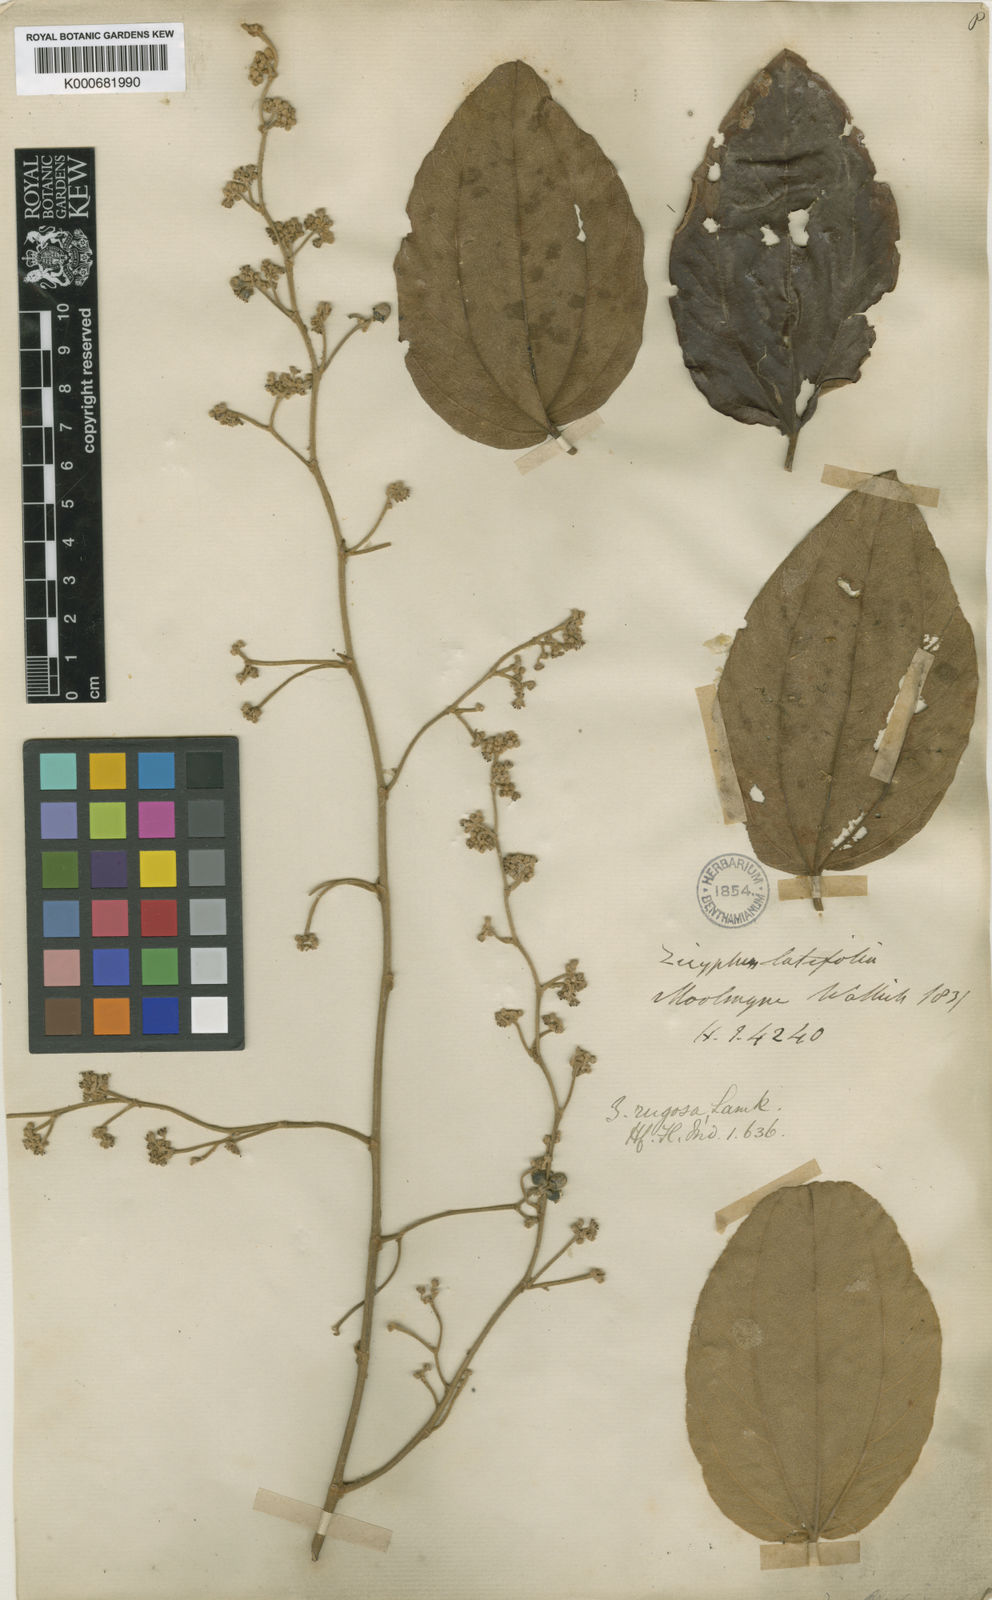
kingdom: Plantae
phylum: Tracheophyta
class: Magnoliopsida
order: Rosales
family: Rhamnaceae
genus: Ziziphus
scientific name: Ziziphus rugosa
